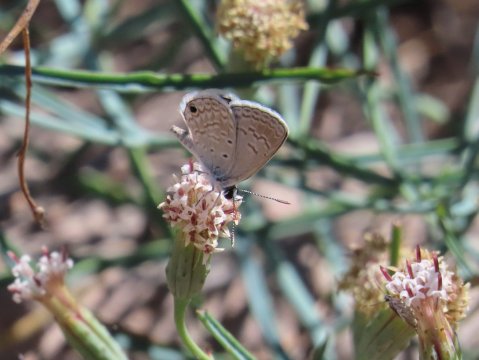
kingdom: Animalia
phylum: Arthropoda
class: Insecta
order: Lepidoptera
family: Lycaenidae
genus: Hemiargus
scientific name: Hemiargus ceraunus
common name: Ceraunus Blue
